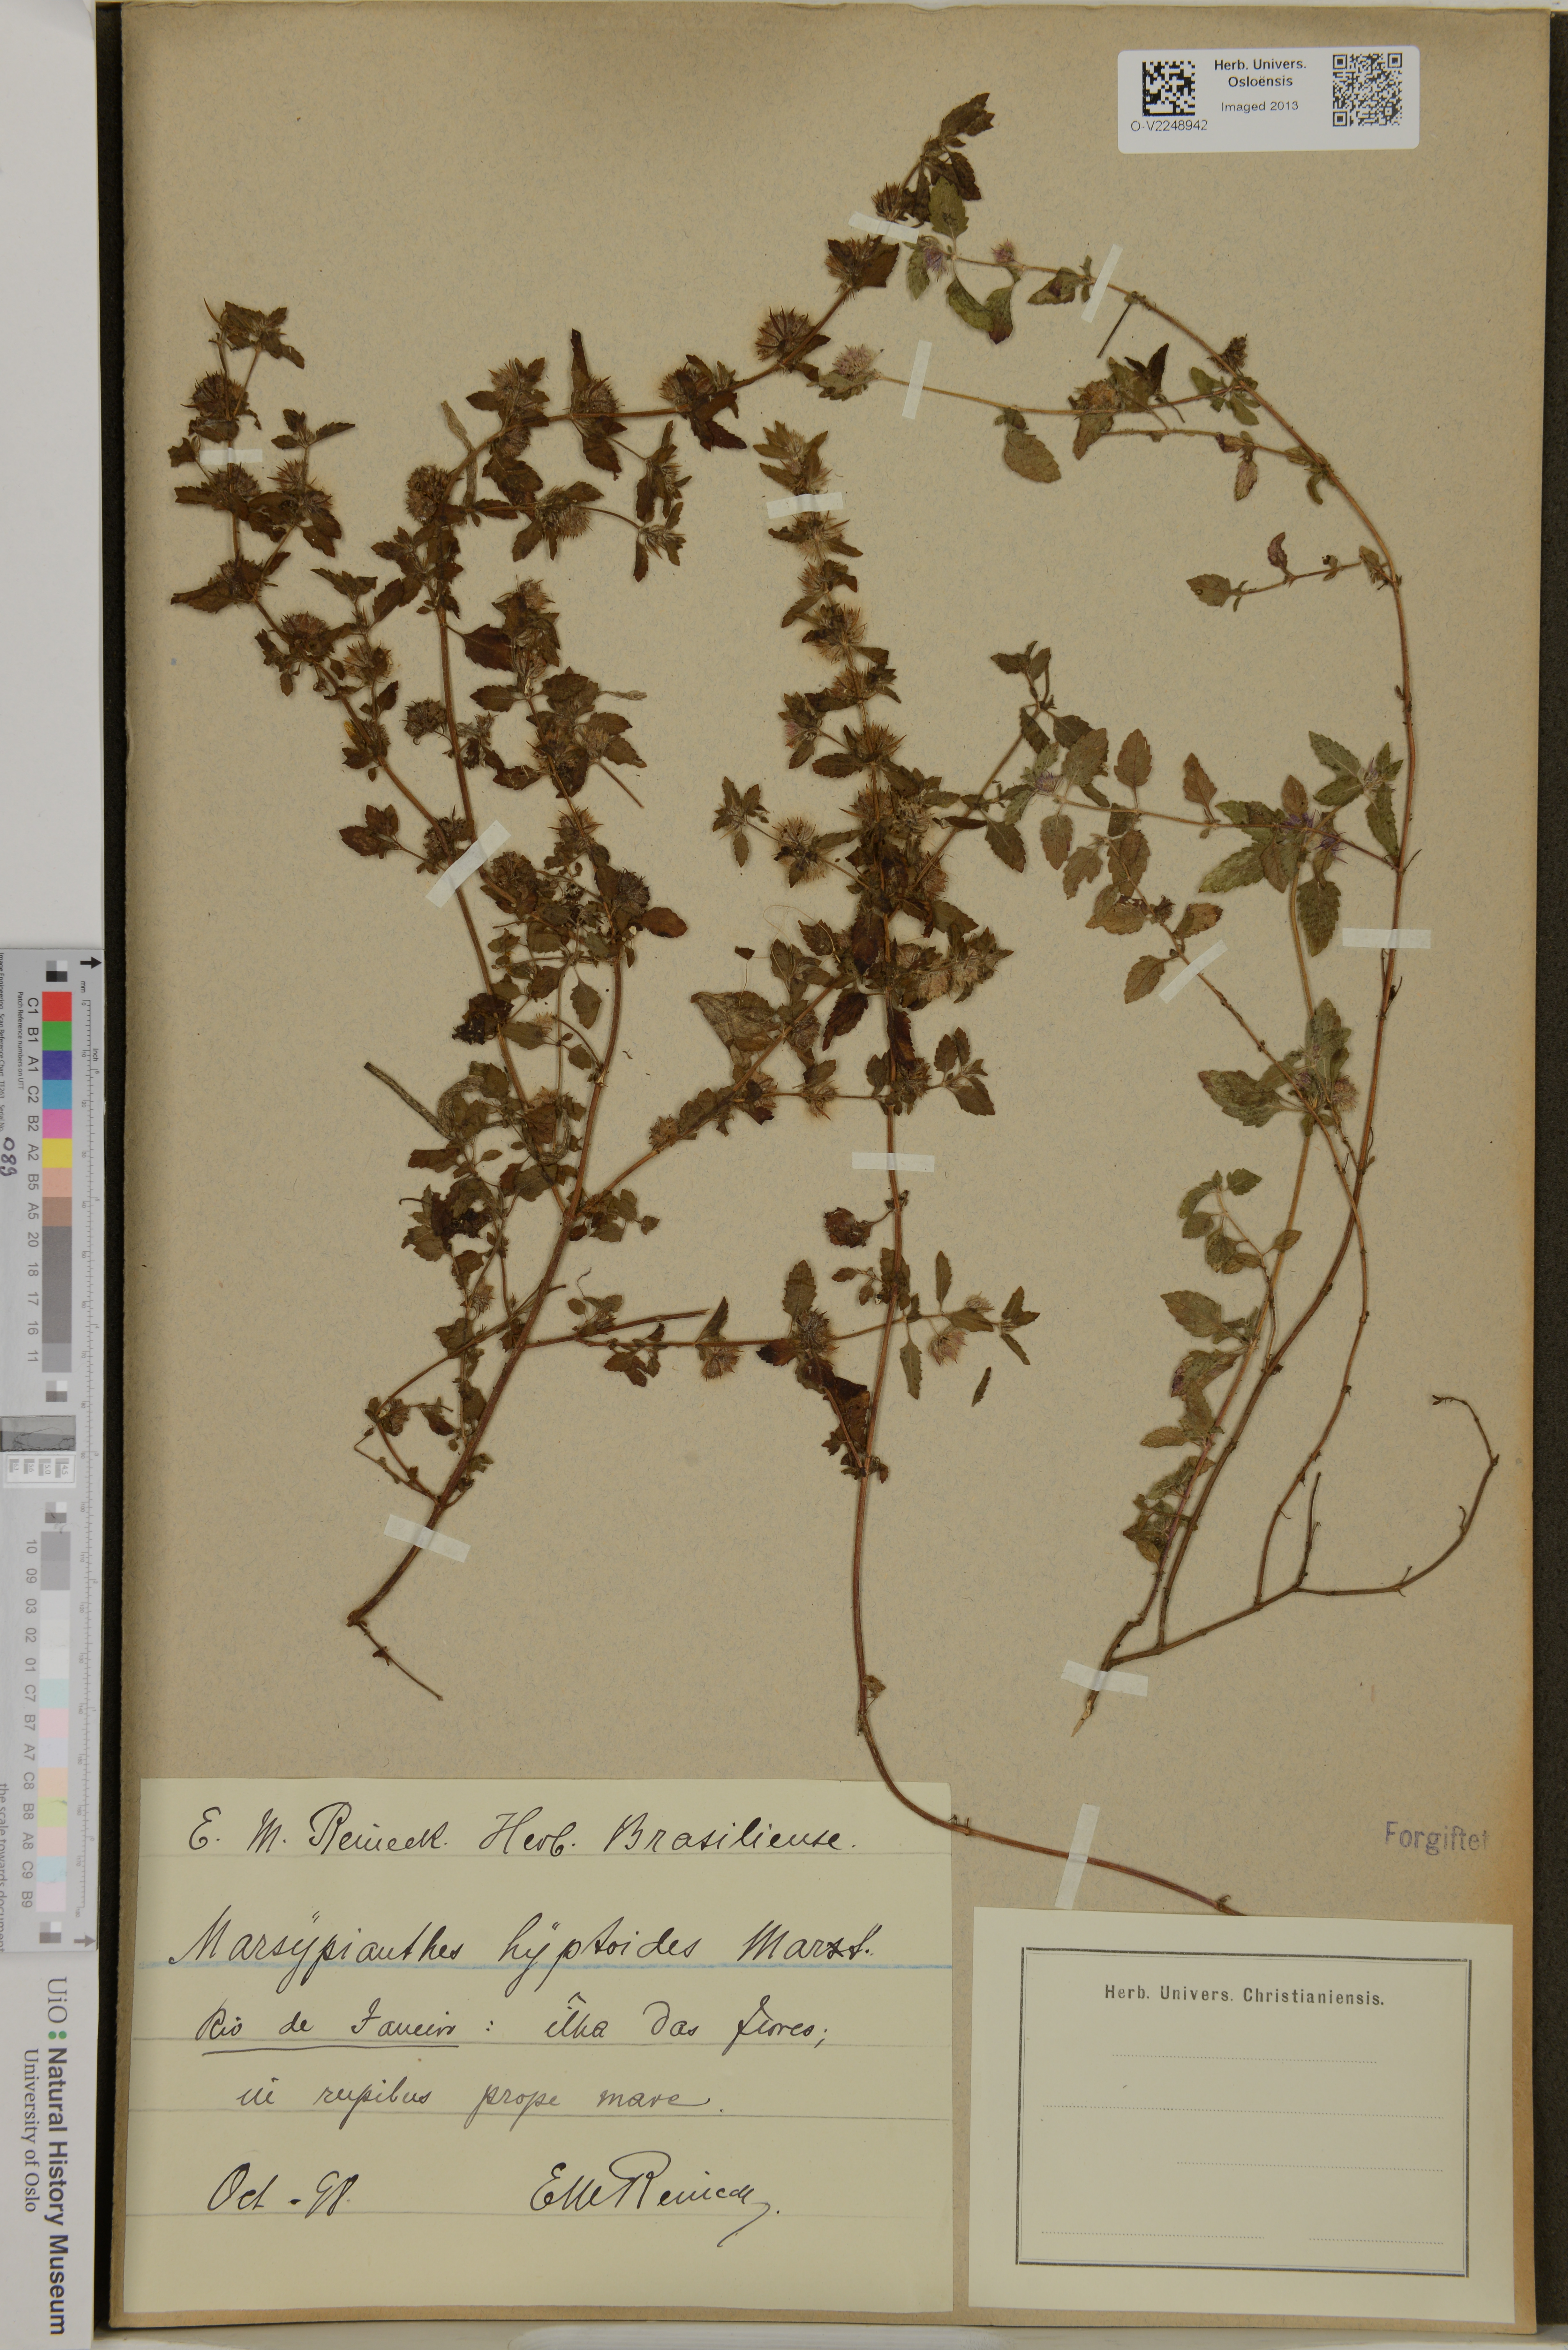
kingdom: Plantae
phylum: Tracheophyta
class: Magnoliopsida
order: Lamiales
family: Lamiaceae
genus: Marsypianthes
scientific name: Marsypianthes chamaedrys
